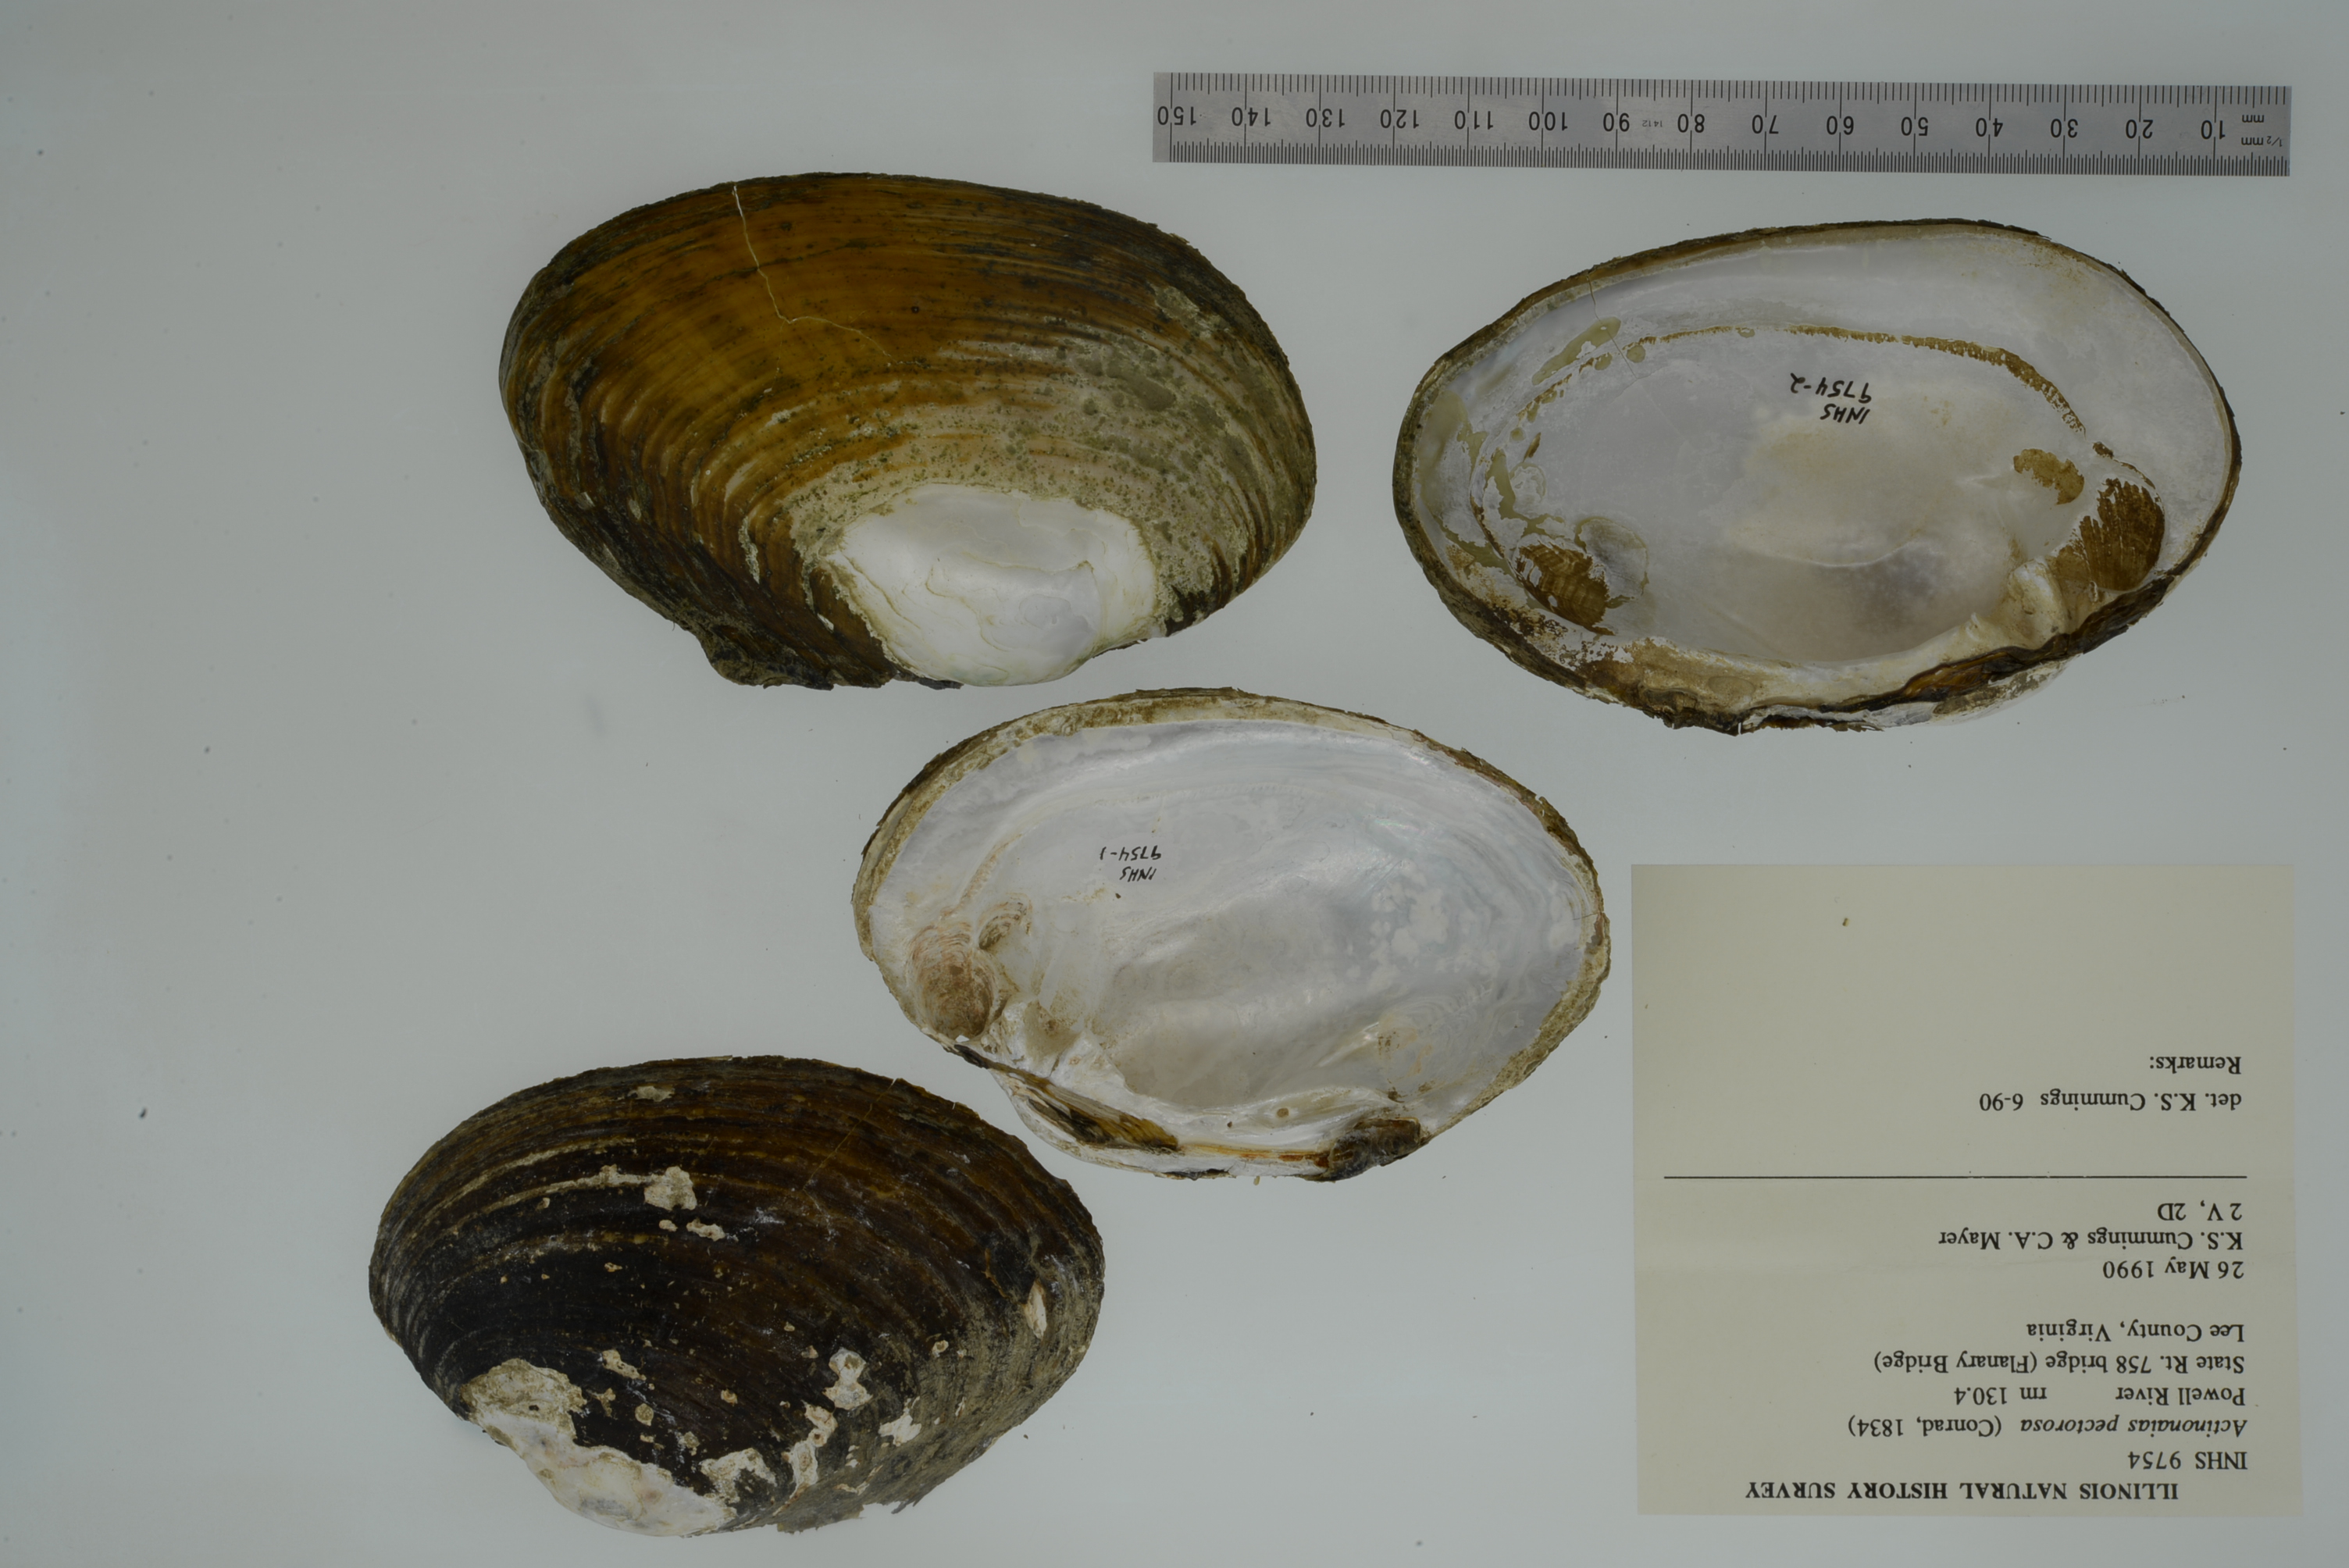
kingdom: Animalia
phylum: Mollusca
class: Bivalvia
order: Unionida
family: Unionidae
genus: Ortmanniana
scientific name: Ortmanniana pectorosa
